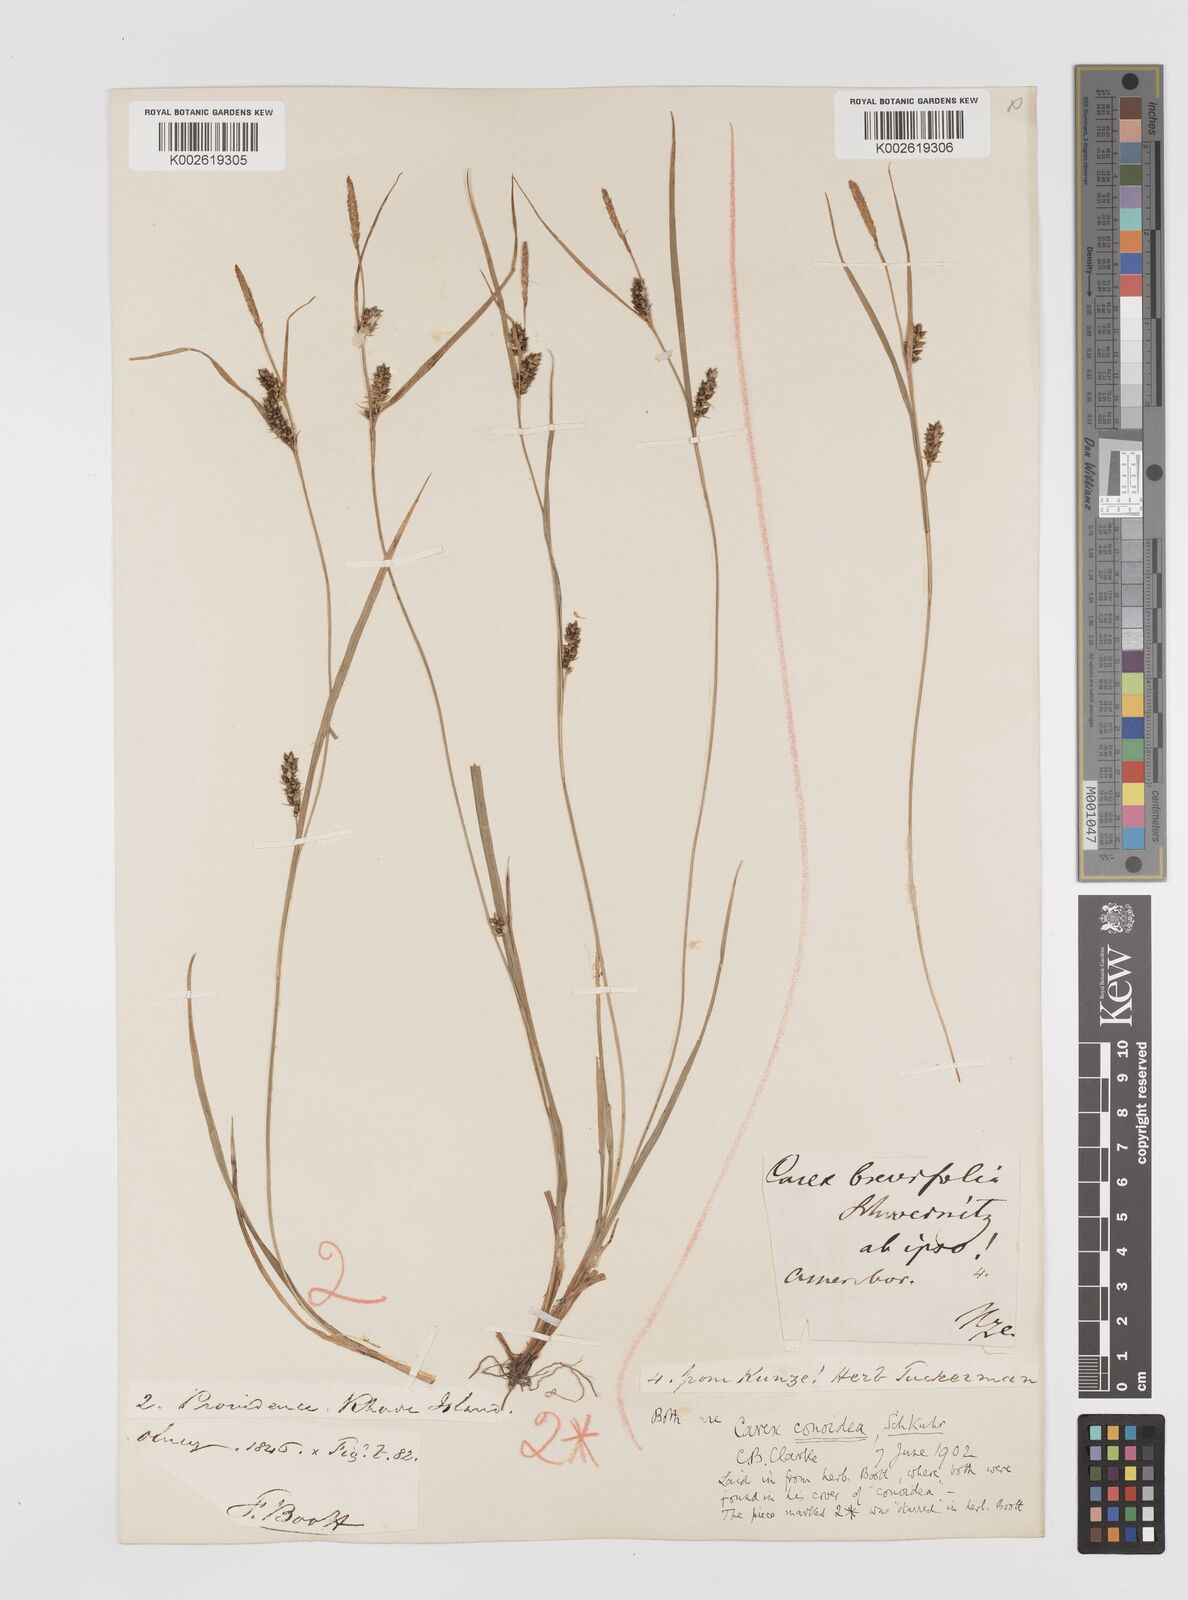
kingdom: Plantae
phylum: Tracheophyta
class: Liliopsida
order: Poales
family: Cyperaceae
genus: Carex
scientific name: Carex conoidea
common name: Cone shaped sedge
